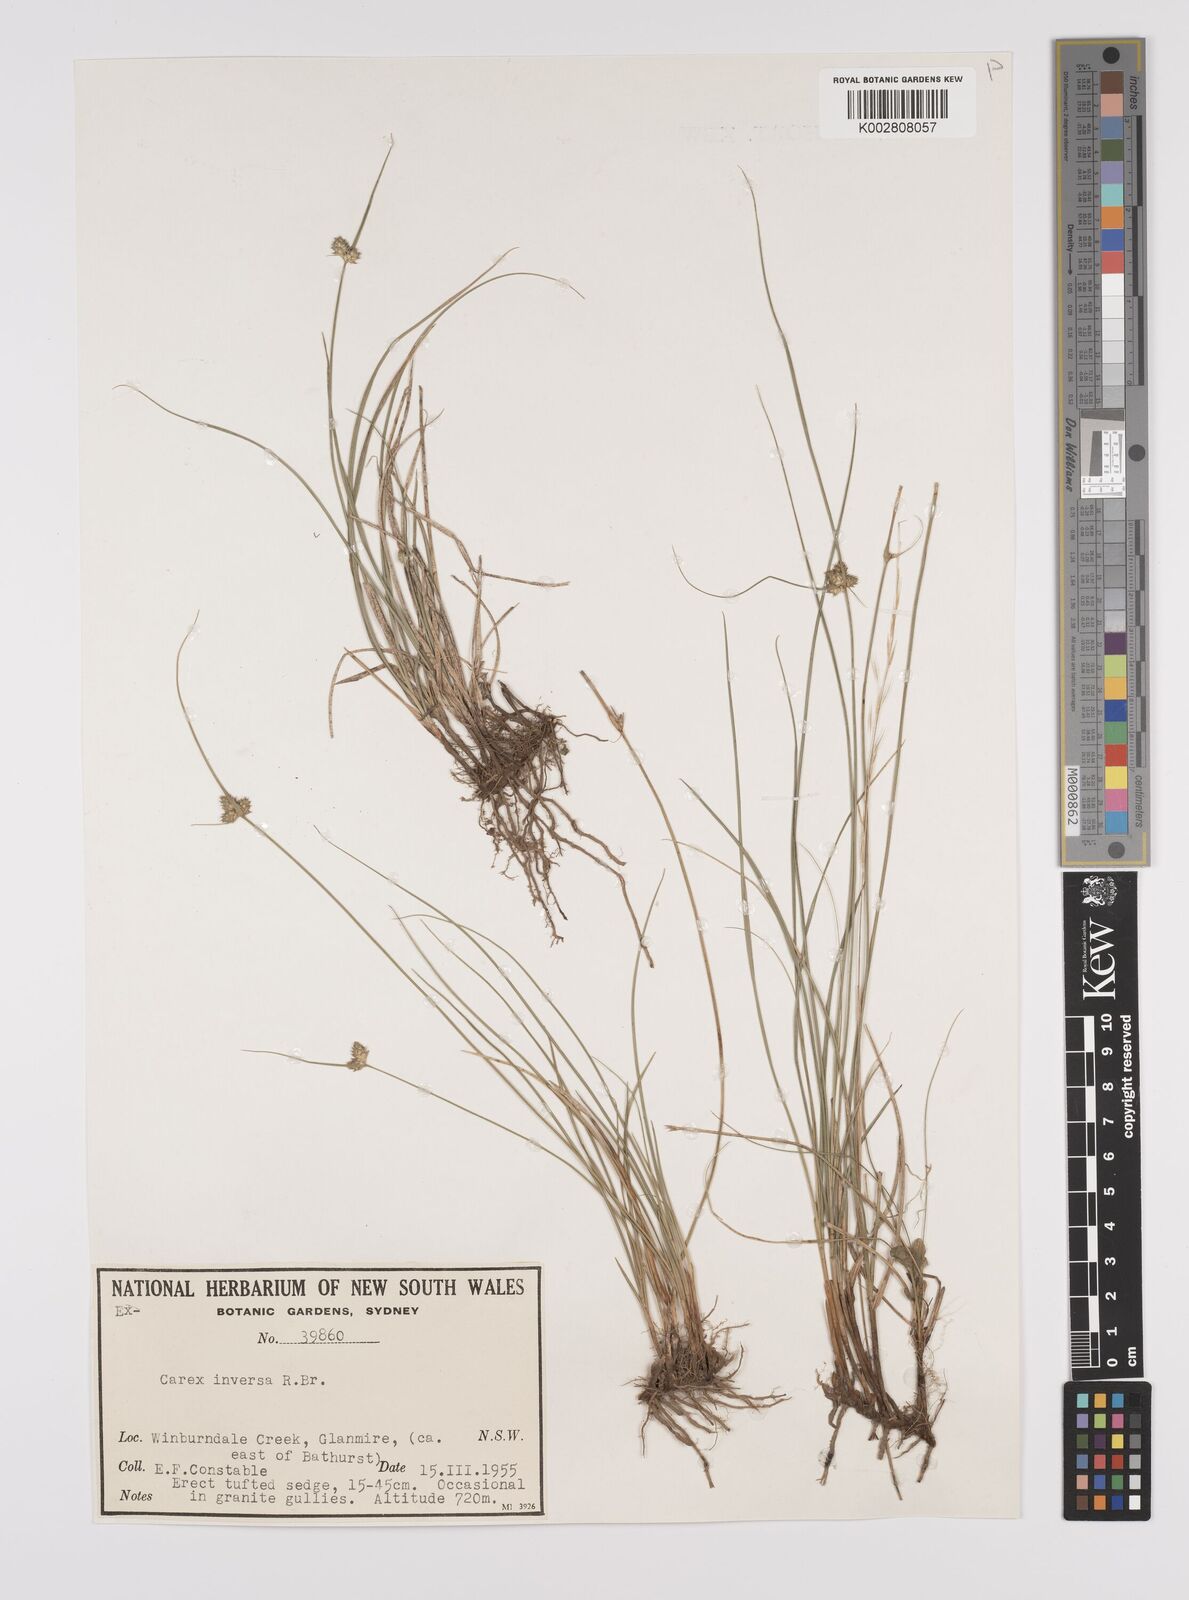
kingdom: Plantae
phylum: Tracheophyta
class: Liliopsida
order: Poales
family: Cyperaceae
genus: Carex
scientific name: Carex inversa
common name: Knob sedge
